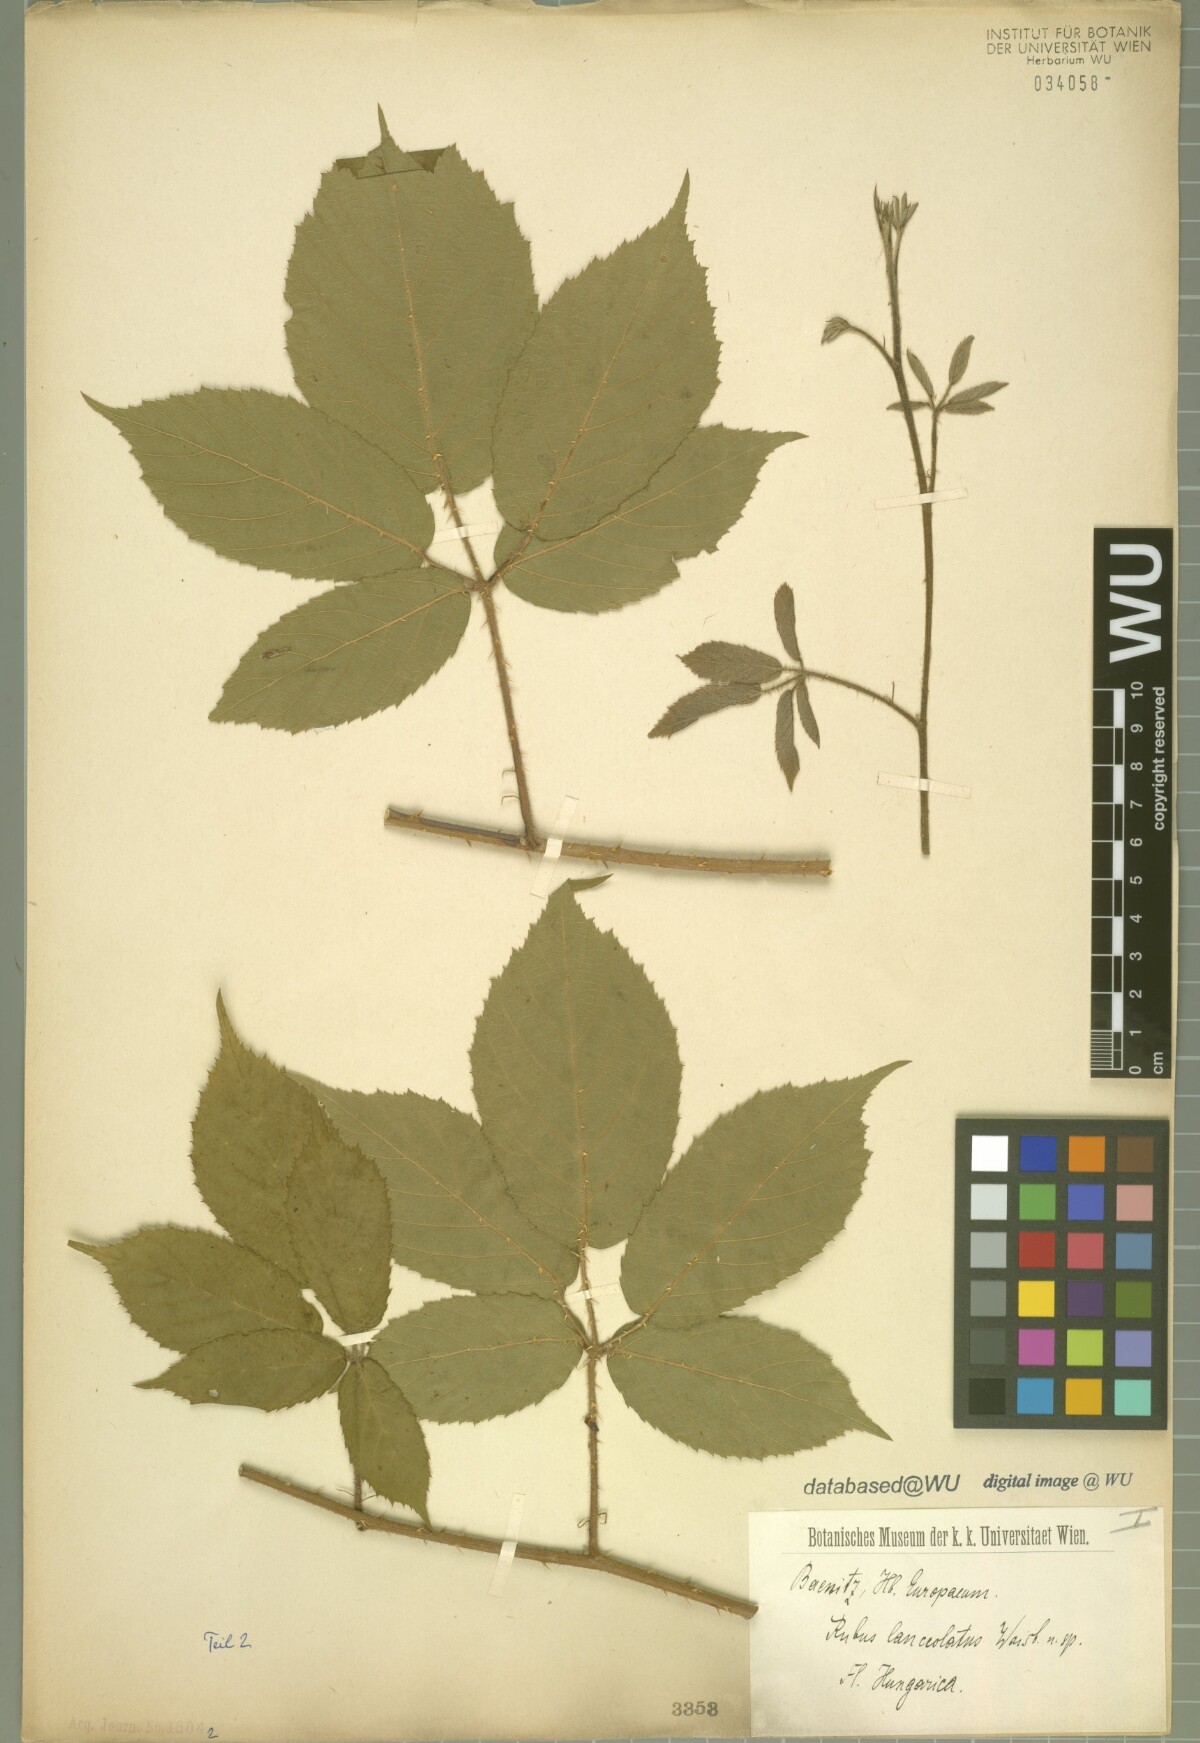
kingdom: Plantae
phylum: Tracheophyta
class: Magnoliopsida
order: Rosales
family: Rosaceae
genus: Rubus
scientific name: Rubus lanceolatus
